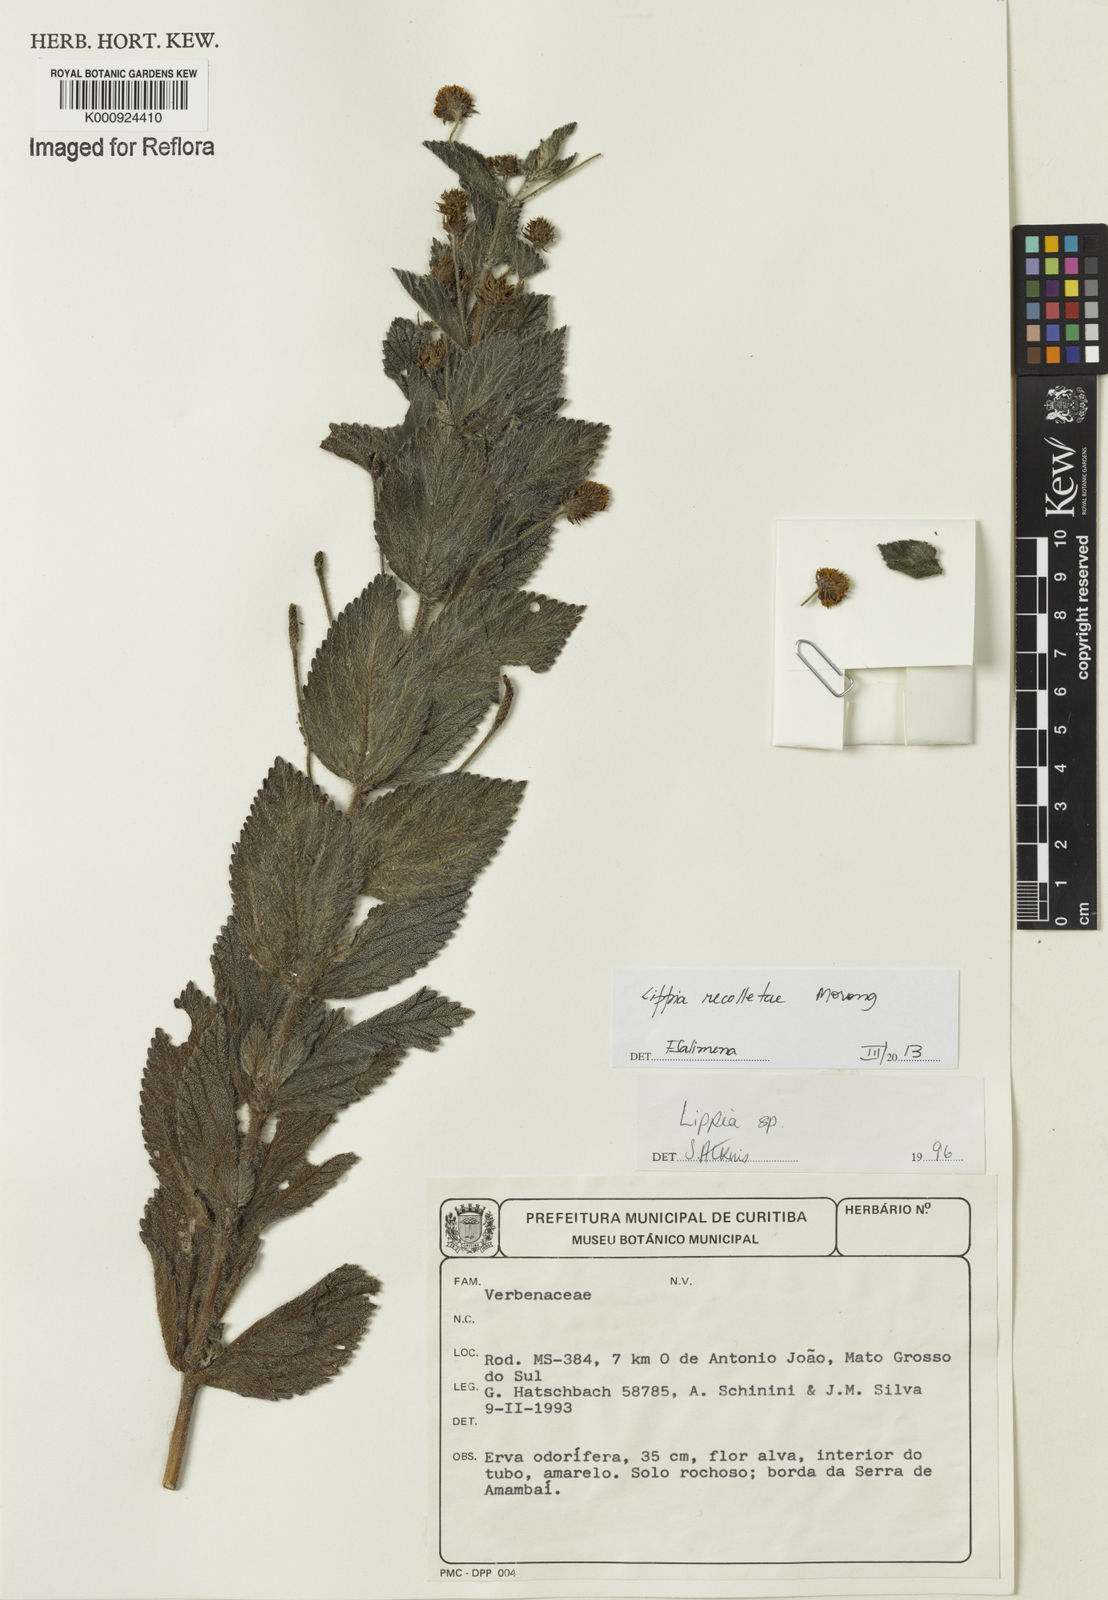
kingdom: Plantae
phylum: Tracheophyta
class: Magnoliopsida
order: Lamiales
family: Verbenaceae
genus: Lippia
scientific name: Lippia
